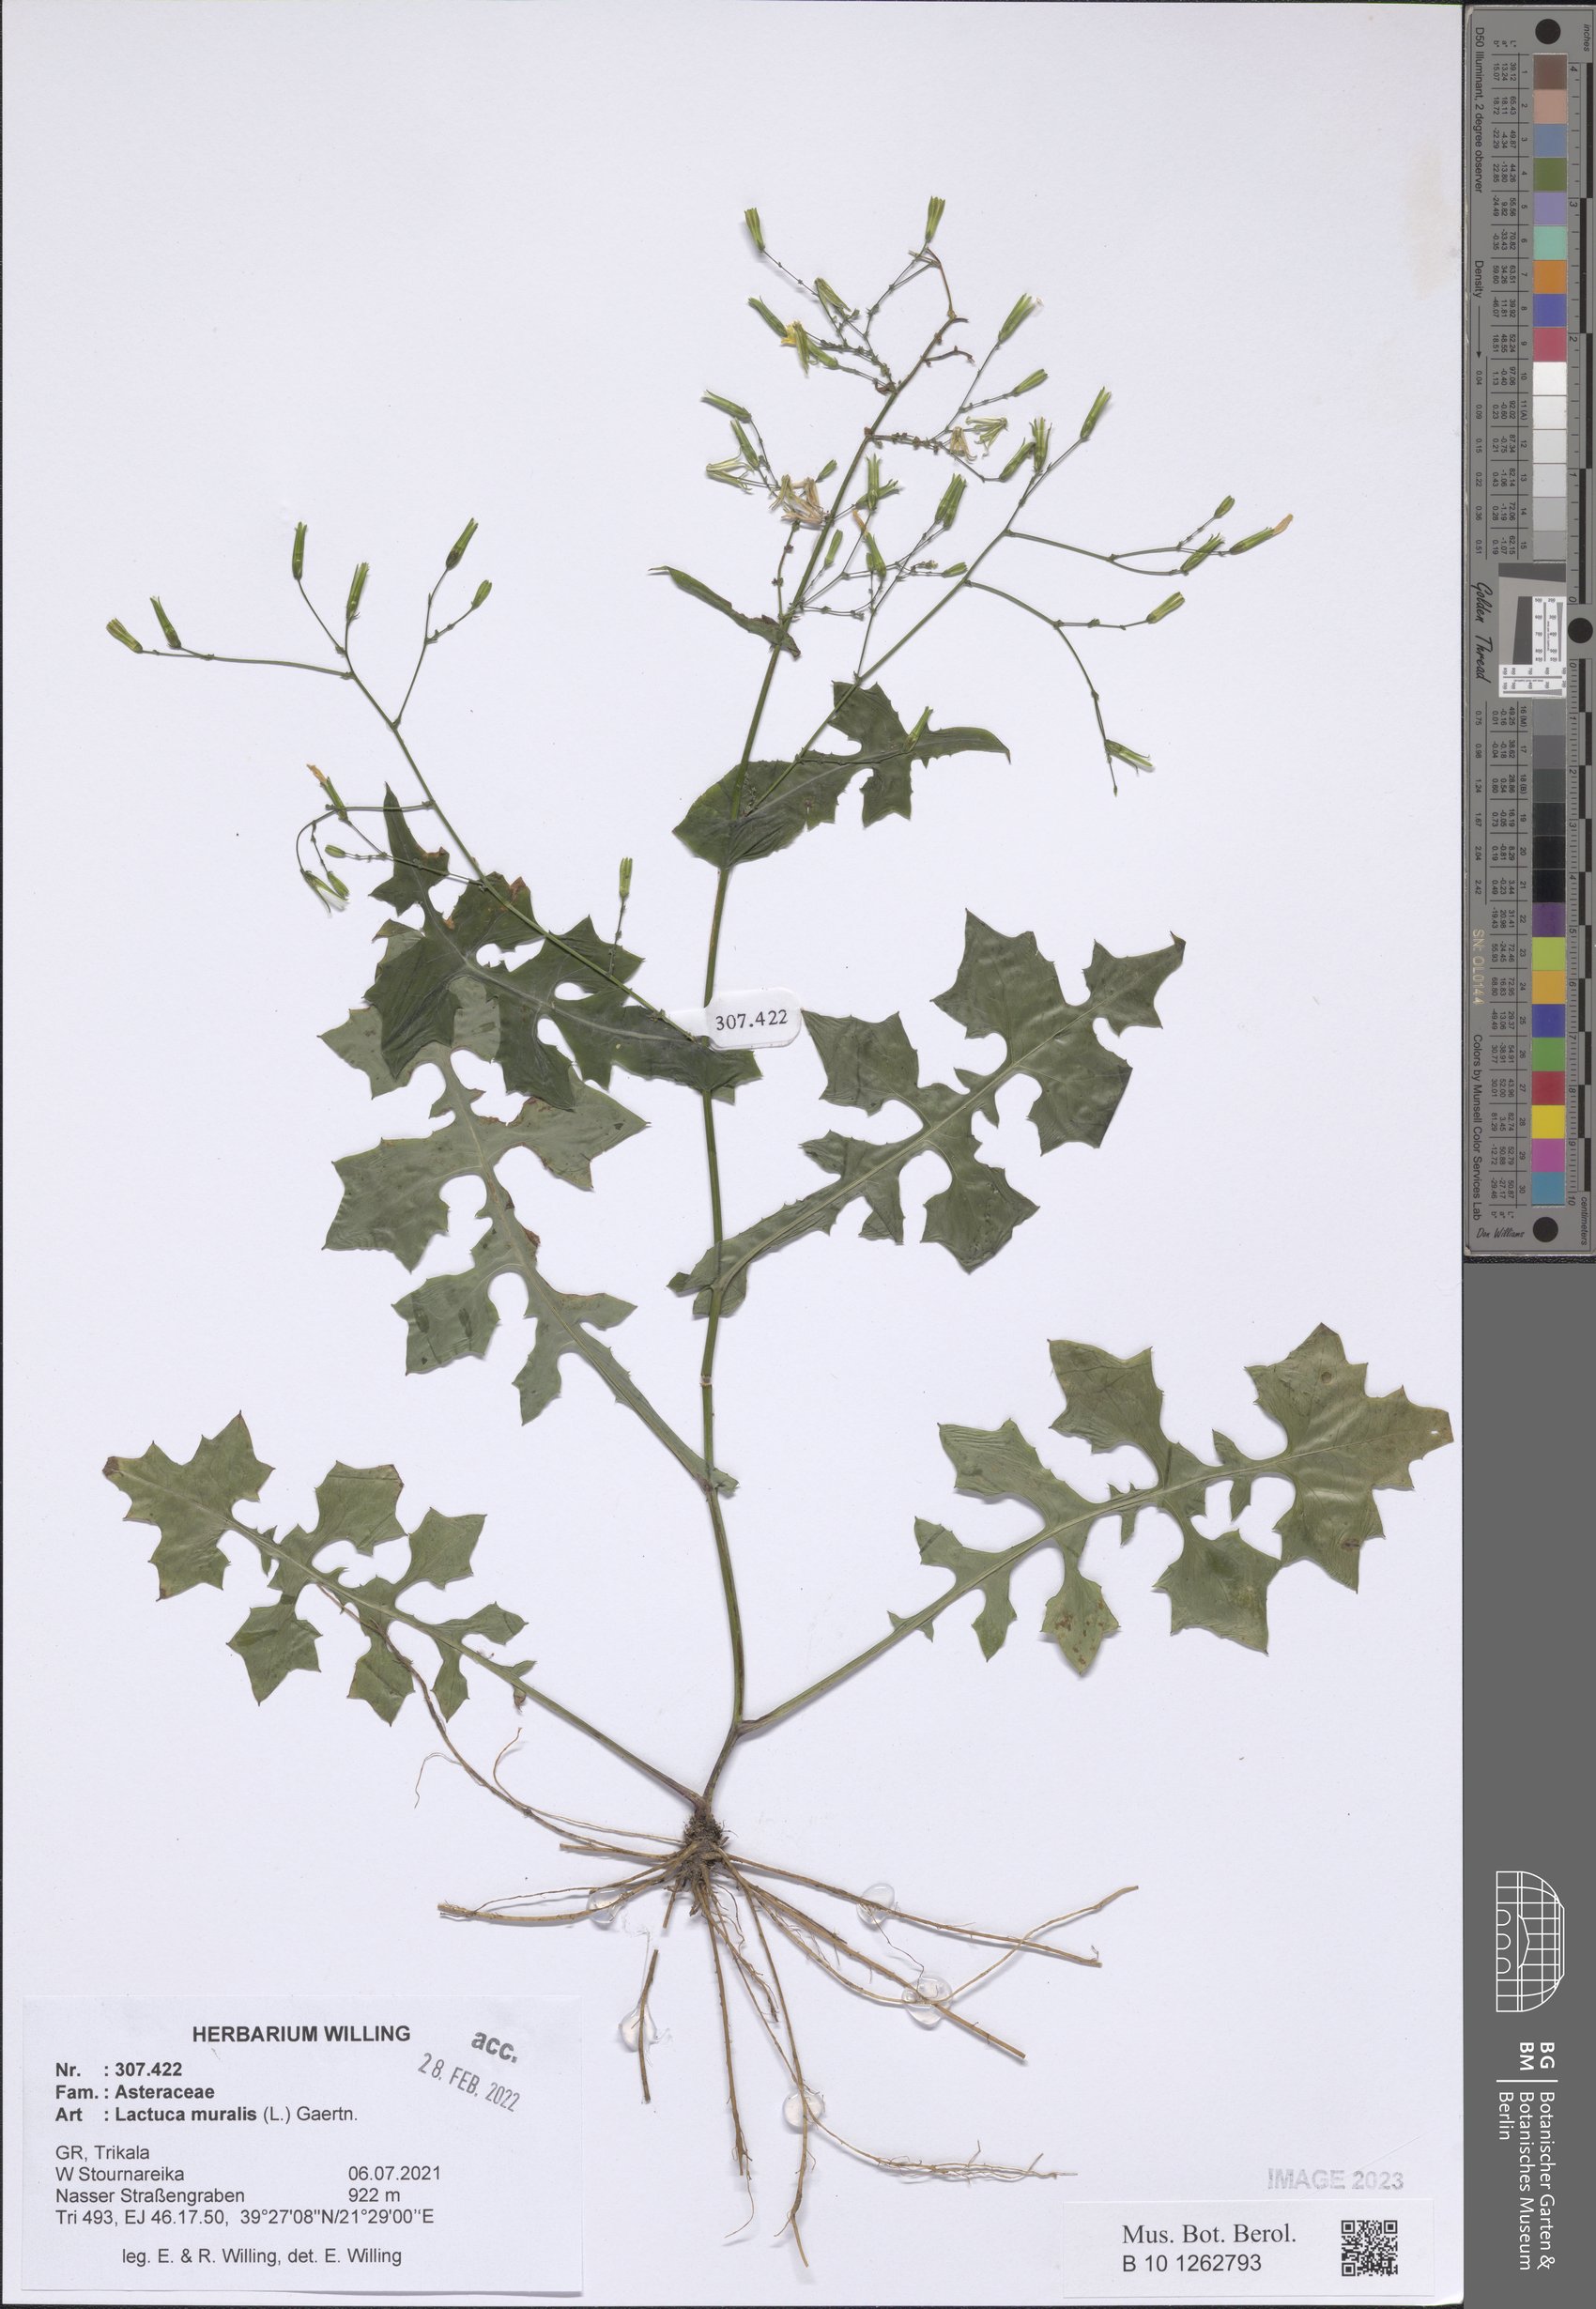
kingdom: Plantae
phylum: Tracheophyta
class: Magnoliopsida
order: Asterales
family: Asteraceae
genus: Mycelis
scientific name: Mycelis muralis
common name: Wall lettuce
